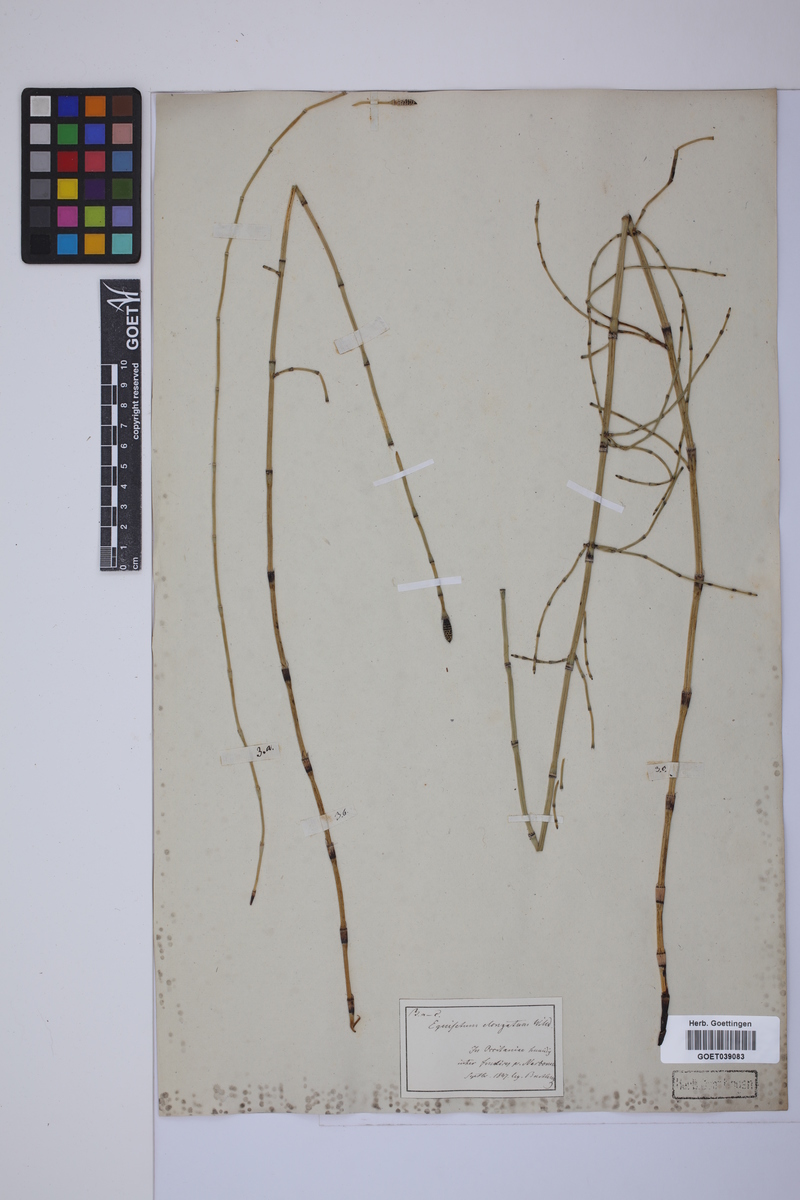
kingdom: Plantae
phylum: Tracheophyta
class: Polypodiopsida
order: Equisetales
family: Equisetaceae
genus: Equisetum
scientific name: Equisetum giganteum
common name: Giant horsetail
